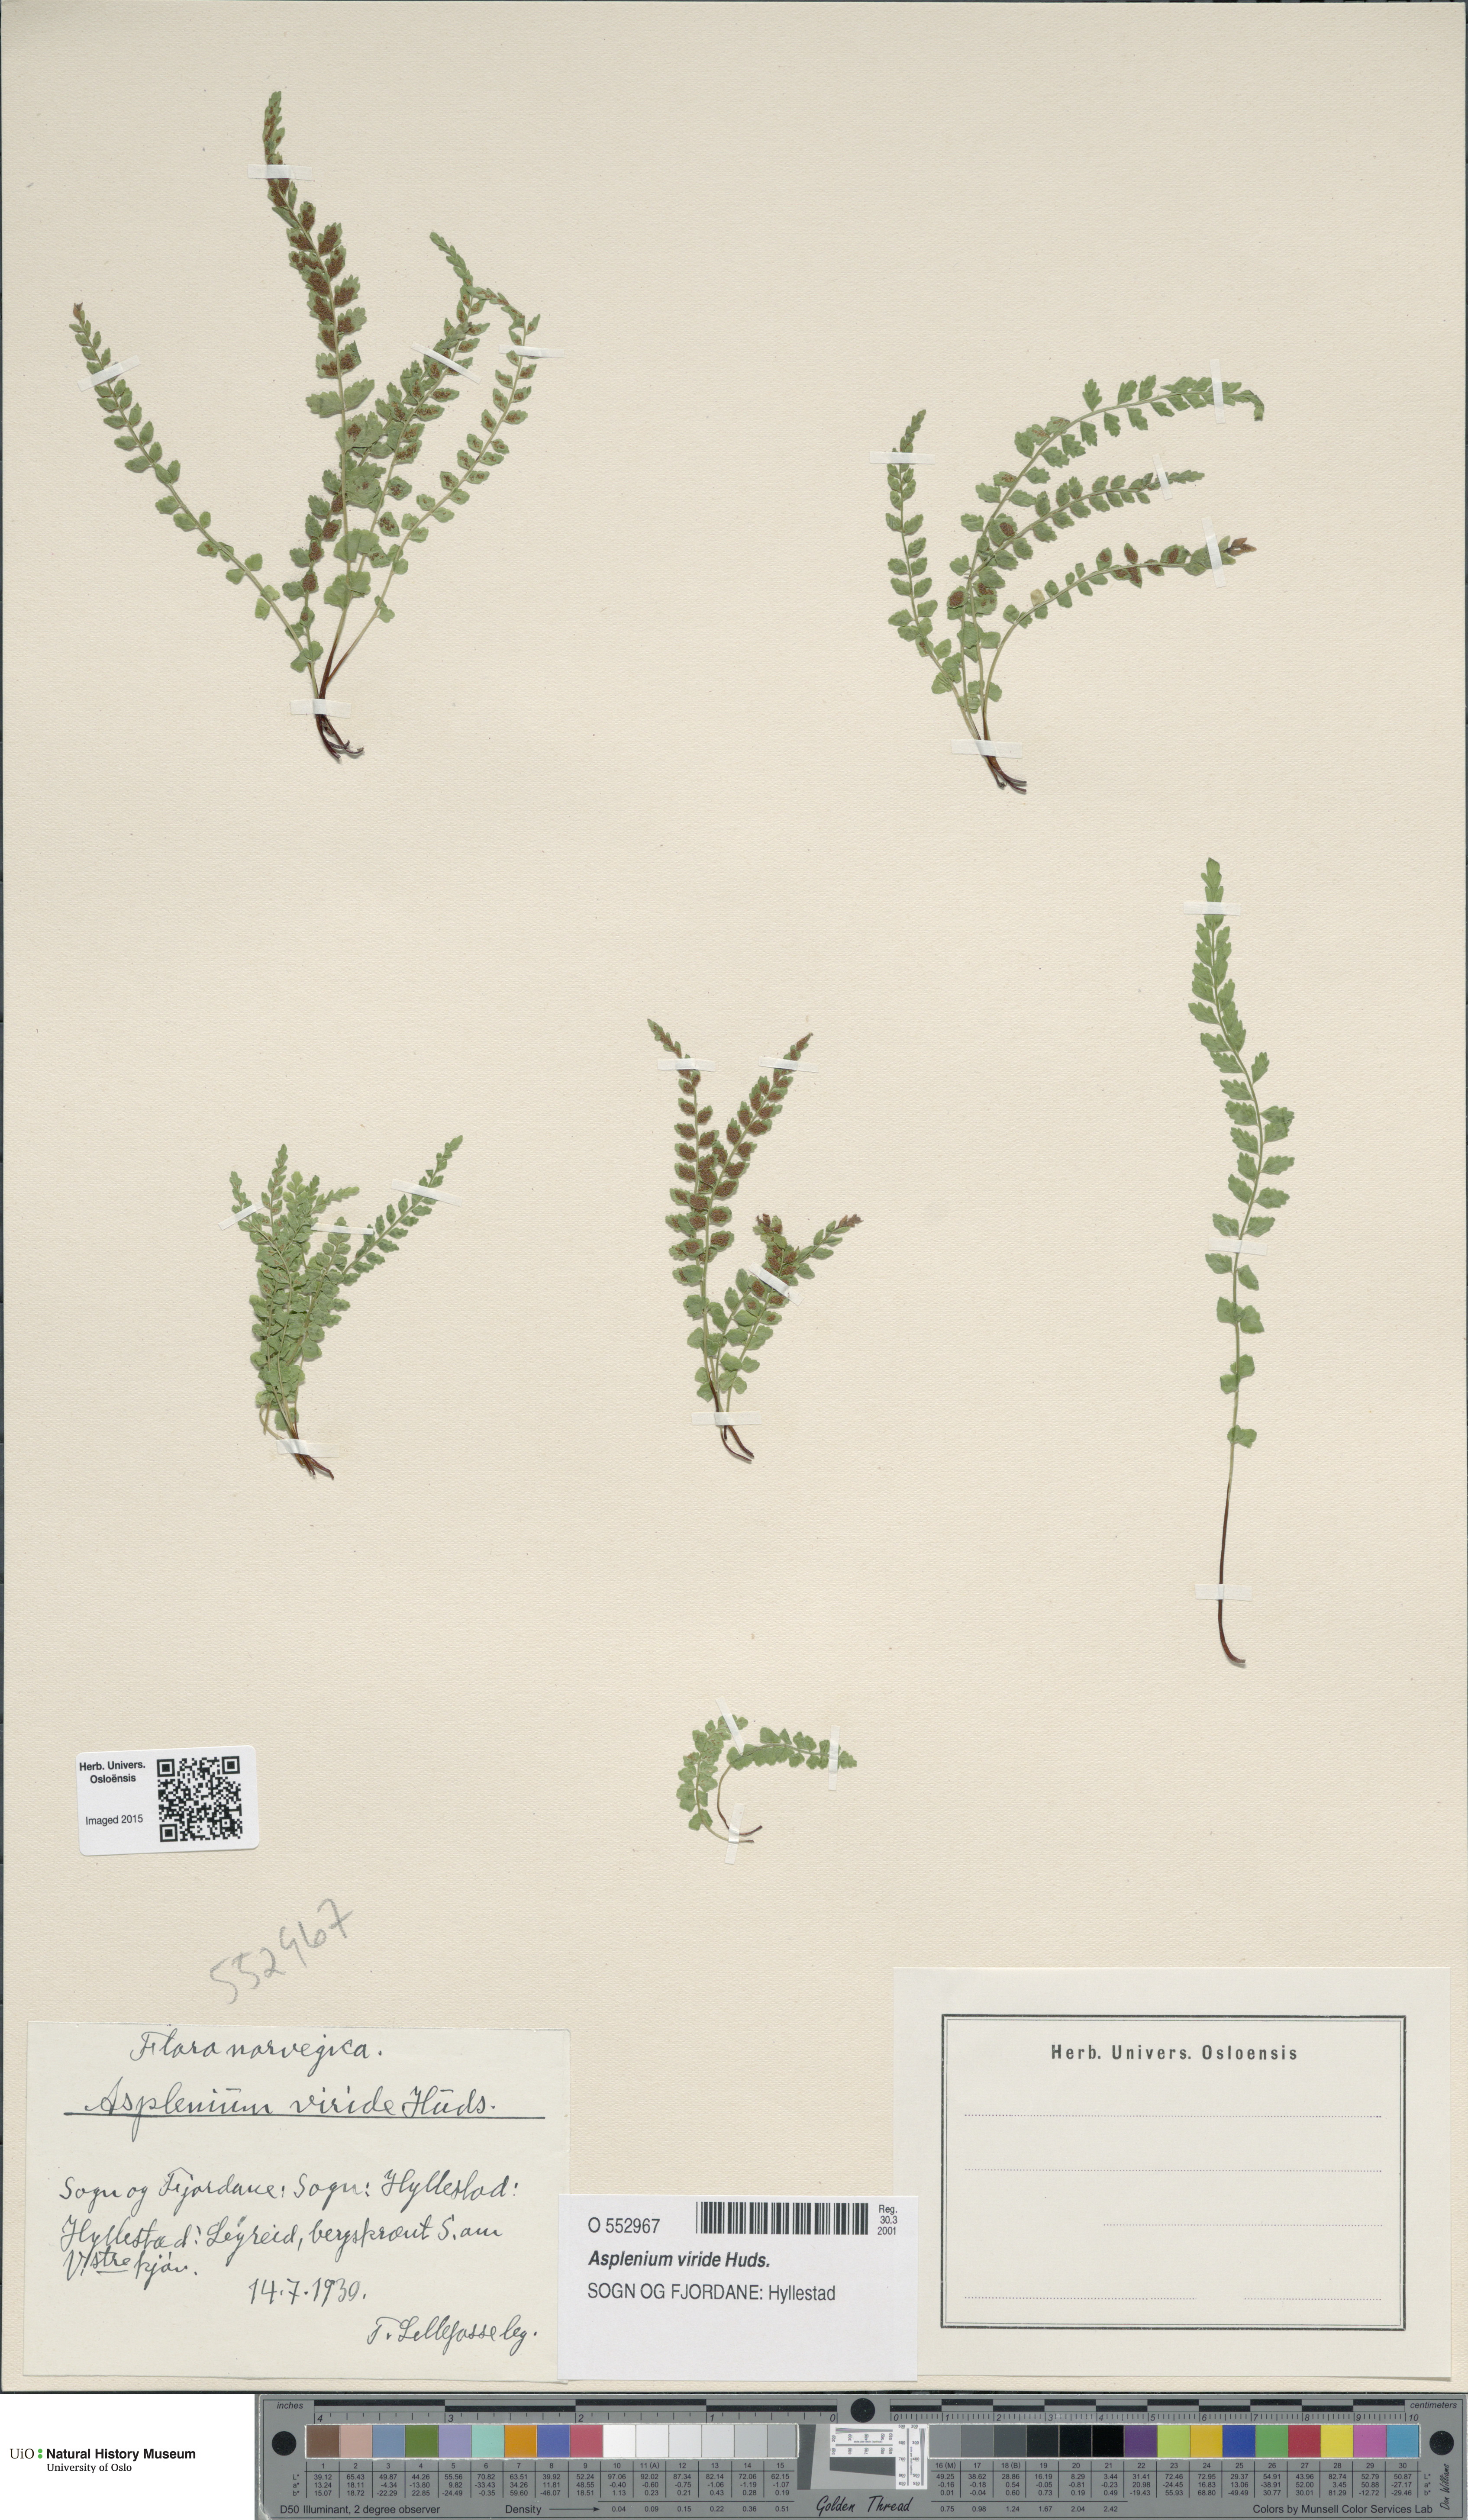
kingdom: Plantae
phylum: Tracheophyta
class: Polypodiopsida
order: Polypodiales
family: Aspleniaceae
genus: Asplenium
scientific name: Asplenium viride
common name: Green spleenwort
